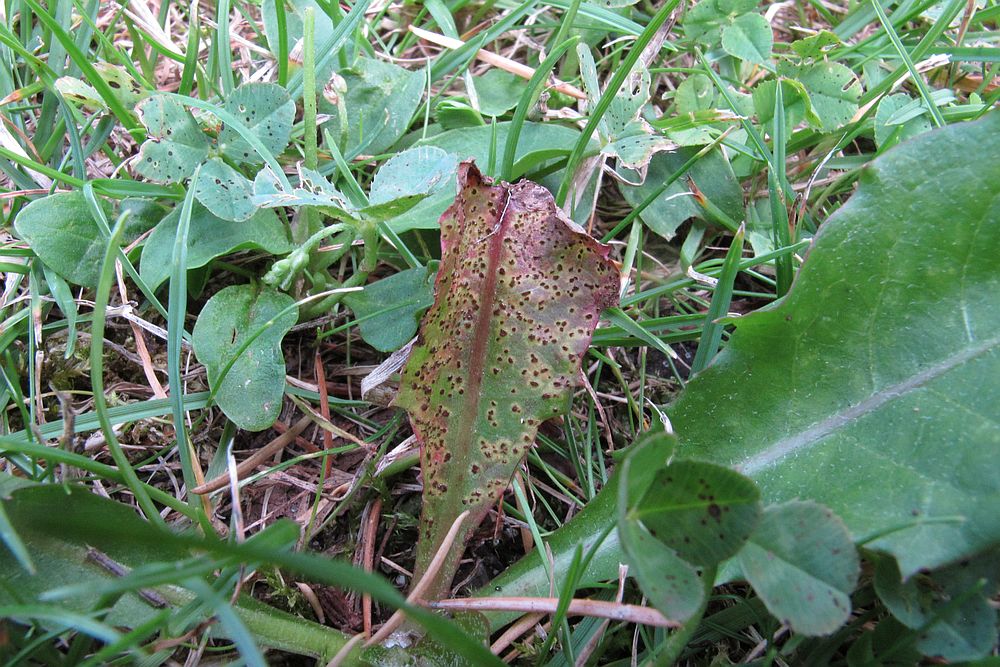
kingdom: Fungi
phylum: Basidiomycota
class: Pucciniomycetes
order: Pucciniales
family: Pucciniaceae
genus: Puccinia
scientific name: Puccinia variabilis
